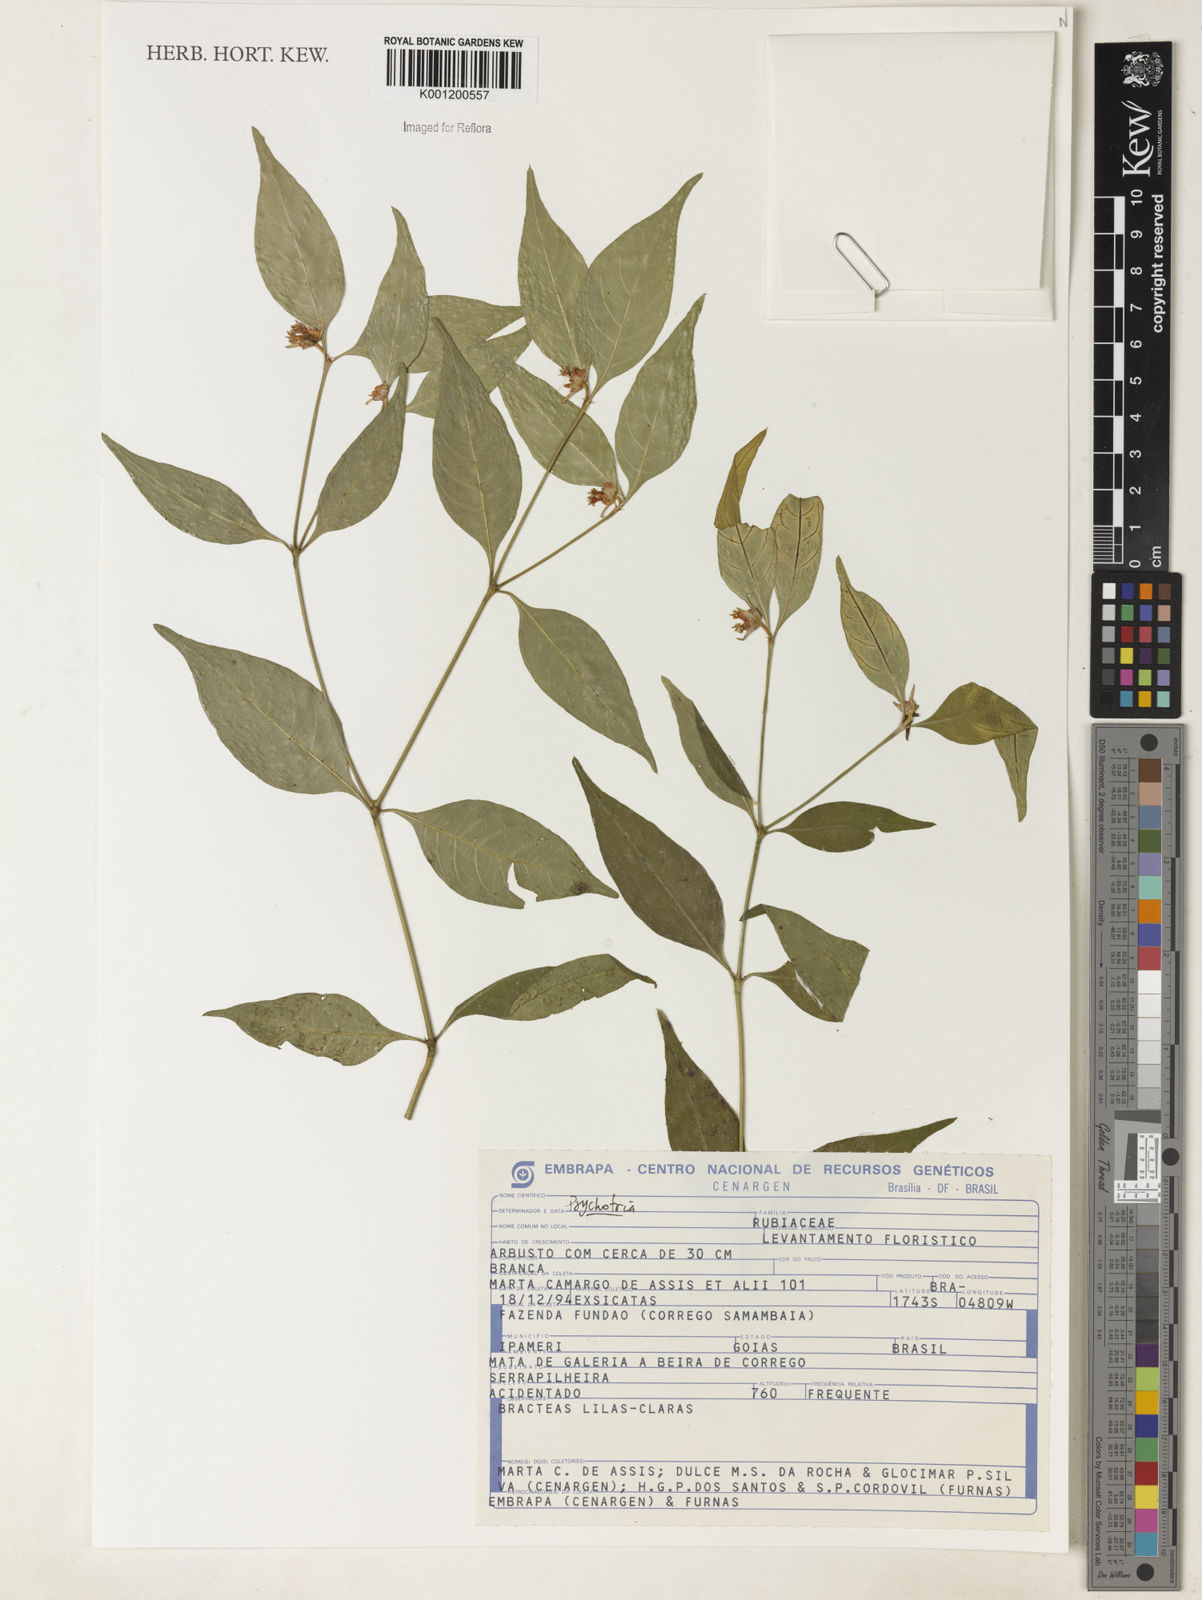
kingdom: Plantae
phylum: Tracheophyta
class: Magnoliopsida
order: Gentianales
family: Rubiaceae
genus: Psychotria
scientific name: Psychotria
